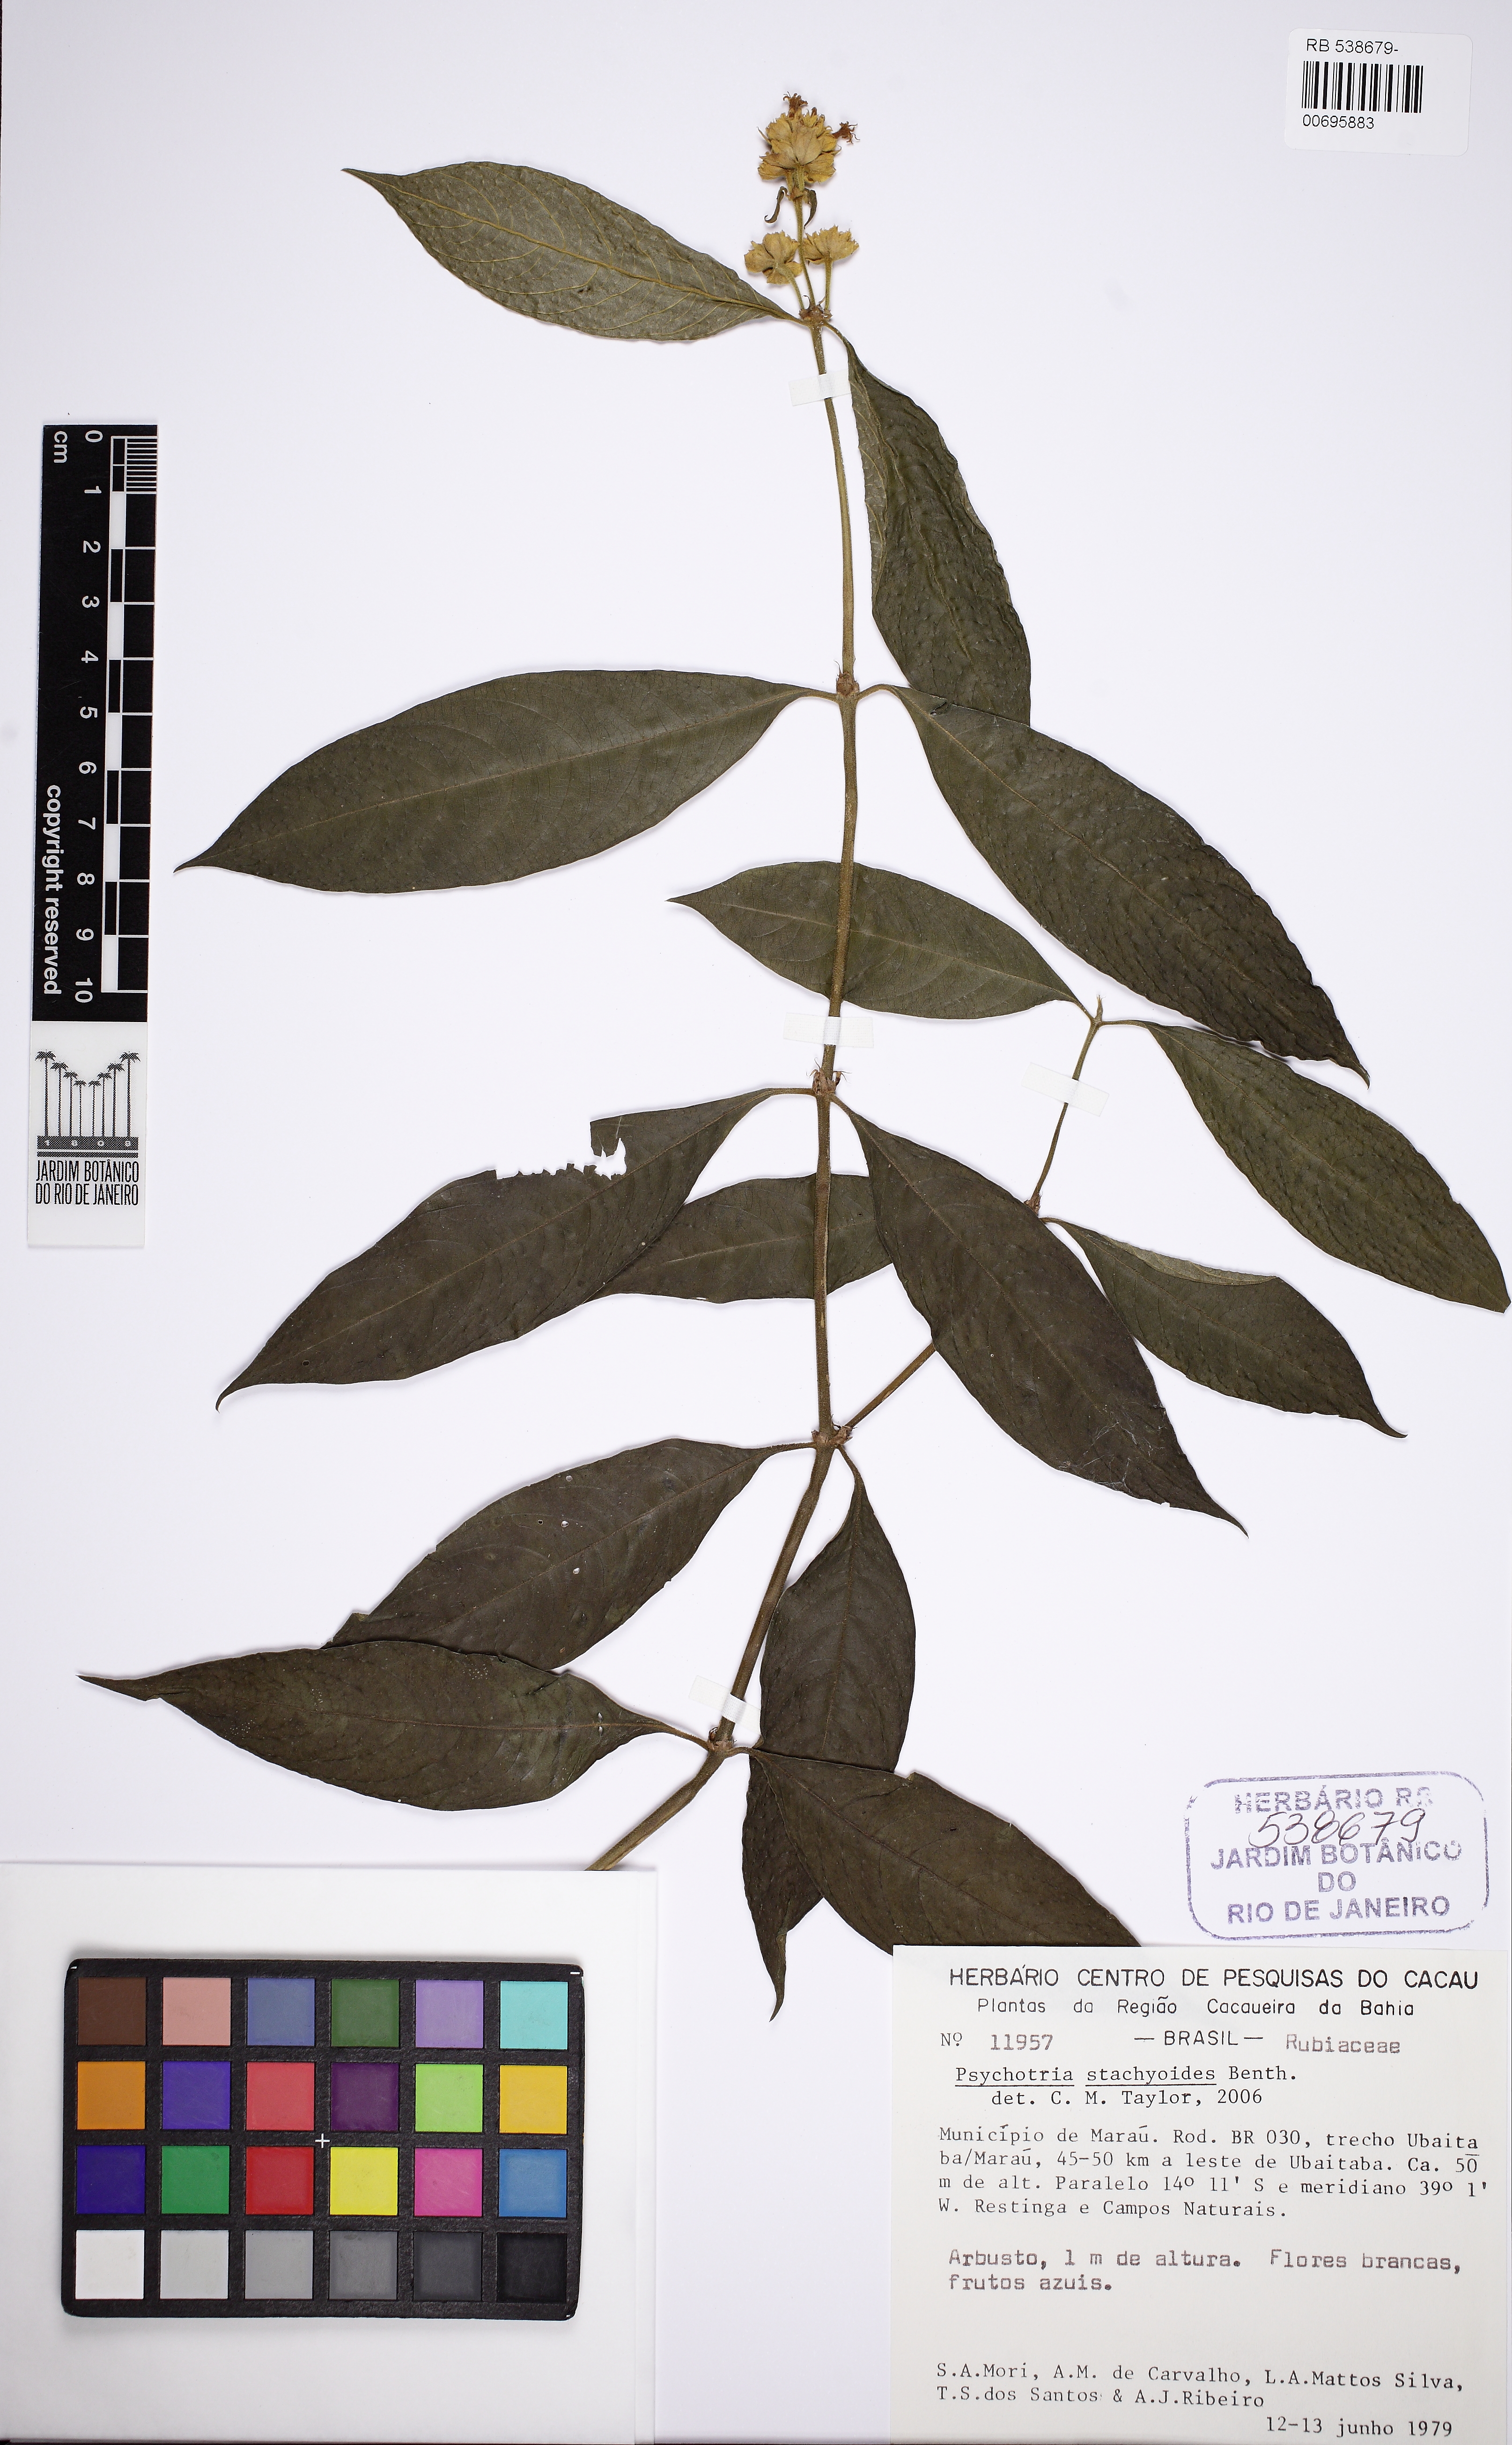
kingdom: Plantae
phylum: Tracheophyta
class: Magnoliopsida
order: Gentianales
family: Rubiaceae
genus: Psychotria
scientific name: Psychotria stachyoides
